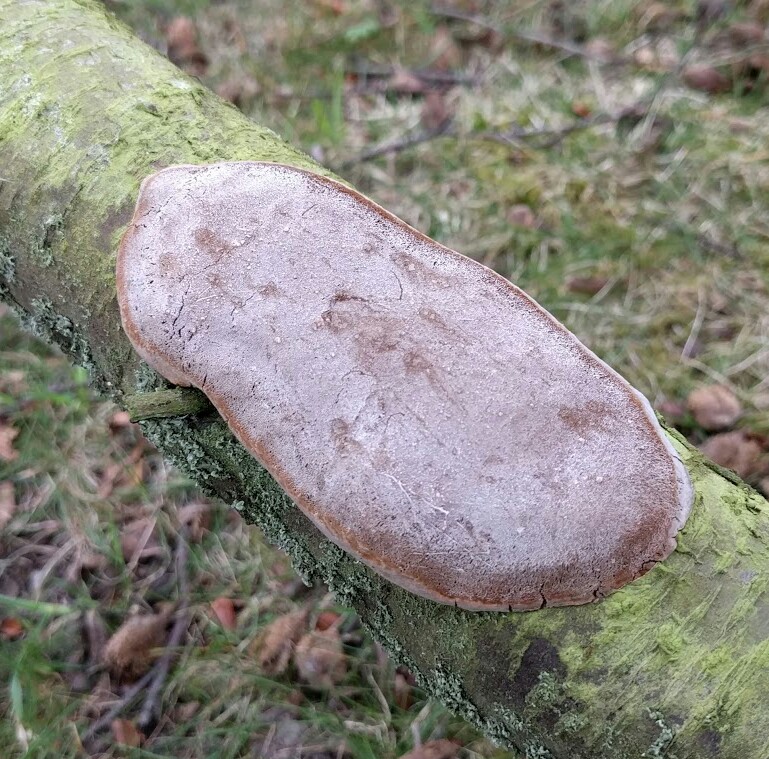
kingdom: Fungi
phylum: Basidiomycota
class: Agaricomycetes
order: Hymenochaetales
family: Hymenochaetaceae
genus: Phellinus
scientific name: Phellinus pomaceus
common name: blomme-ildporesvamp
